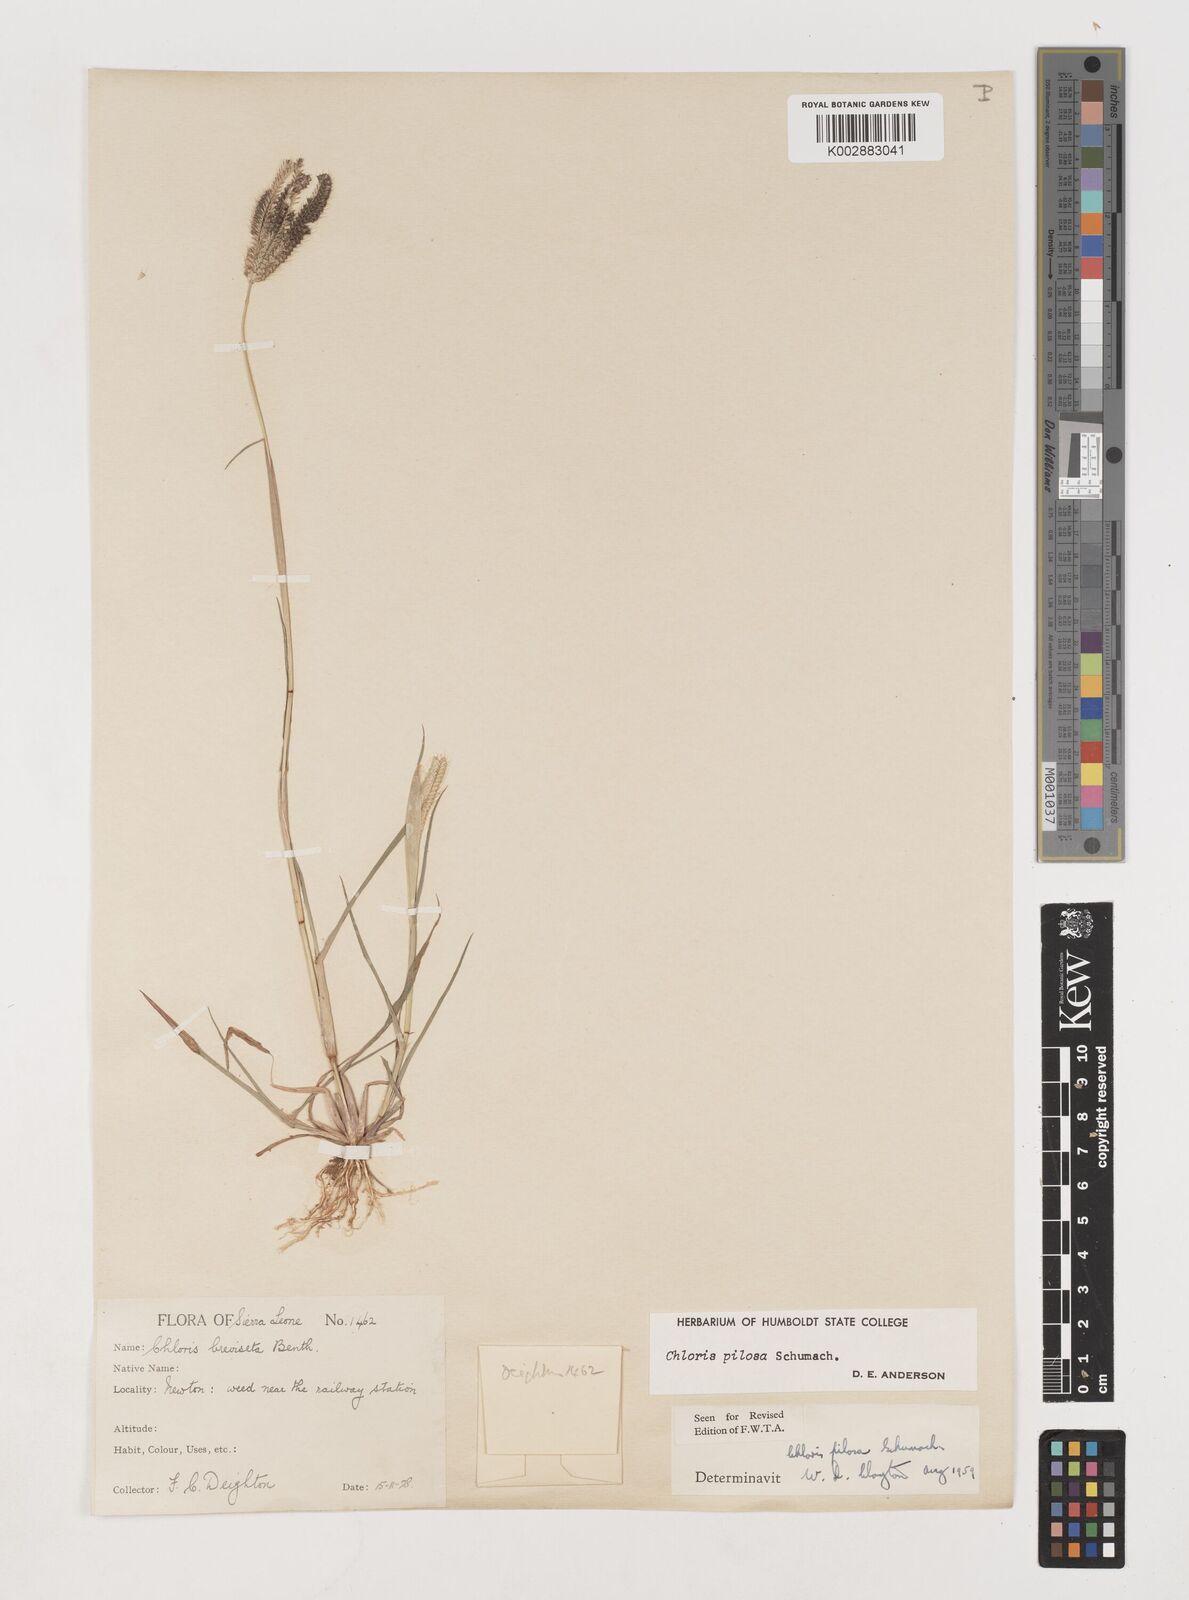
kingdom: Plantae
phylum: Tracheophyta
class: Liliopsida
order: Poales
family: Poaceae
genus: Chloris
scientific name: Chloris pilosa
